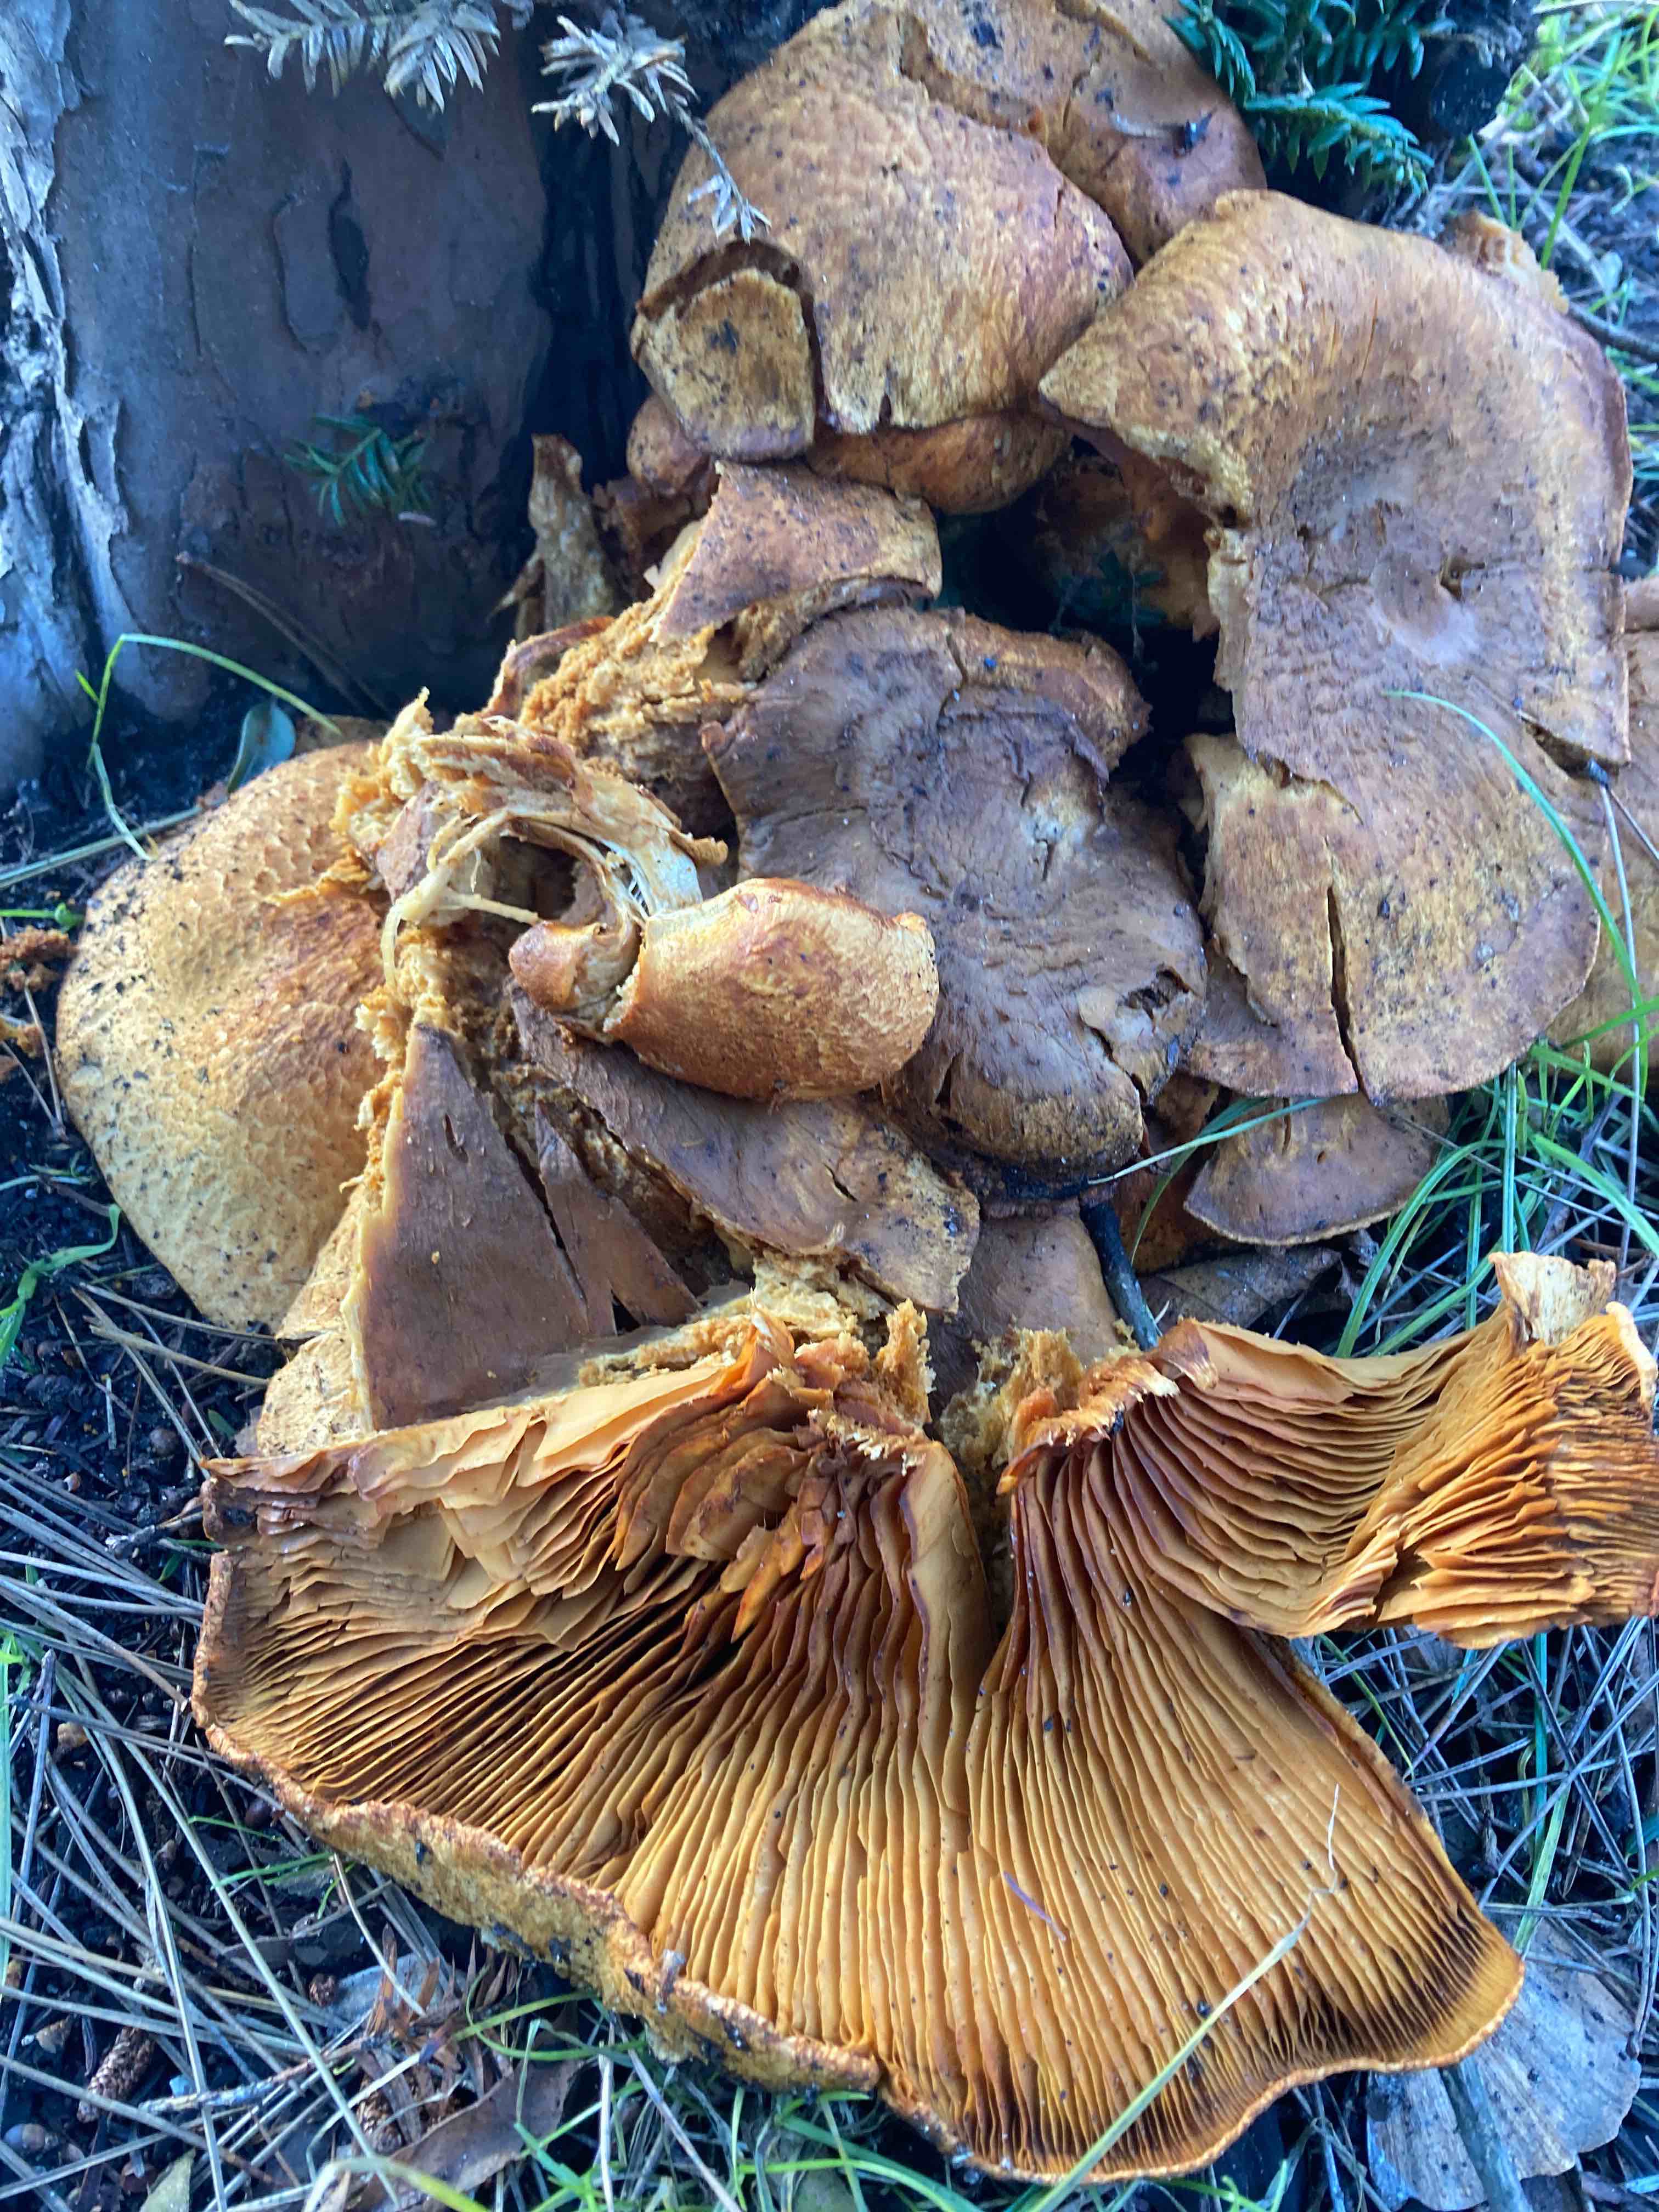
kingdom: Fungi
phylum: Basidiomycota
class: Agaricomycetes
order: Agaricales
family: Strophariaceae
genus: Pholiota
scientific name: Pholiota squarrosa
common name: krumskællet skælhat
